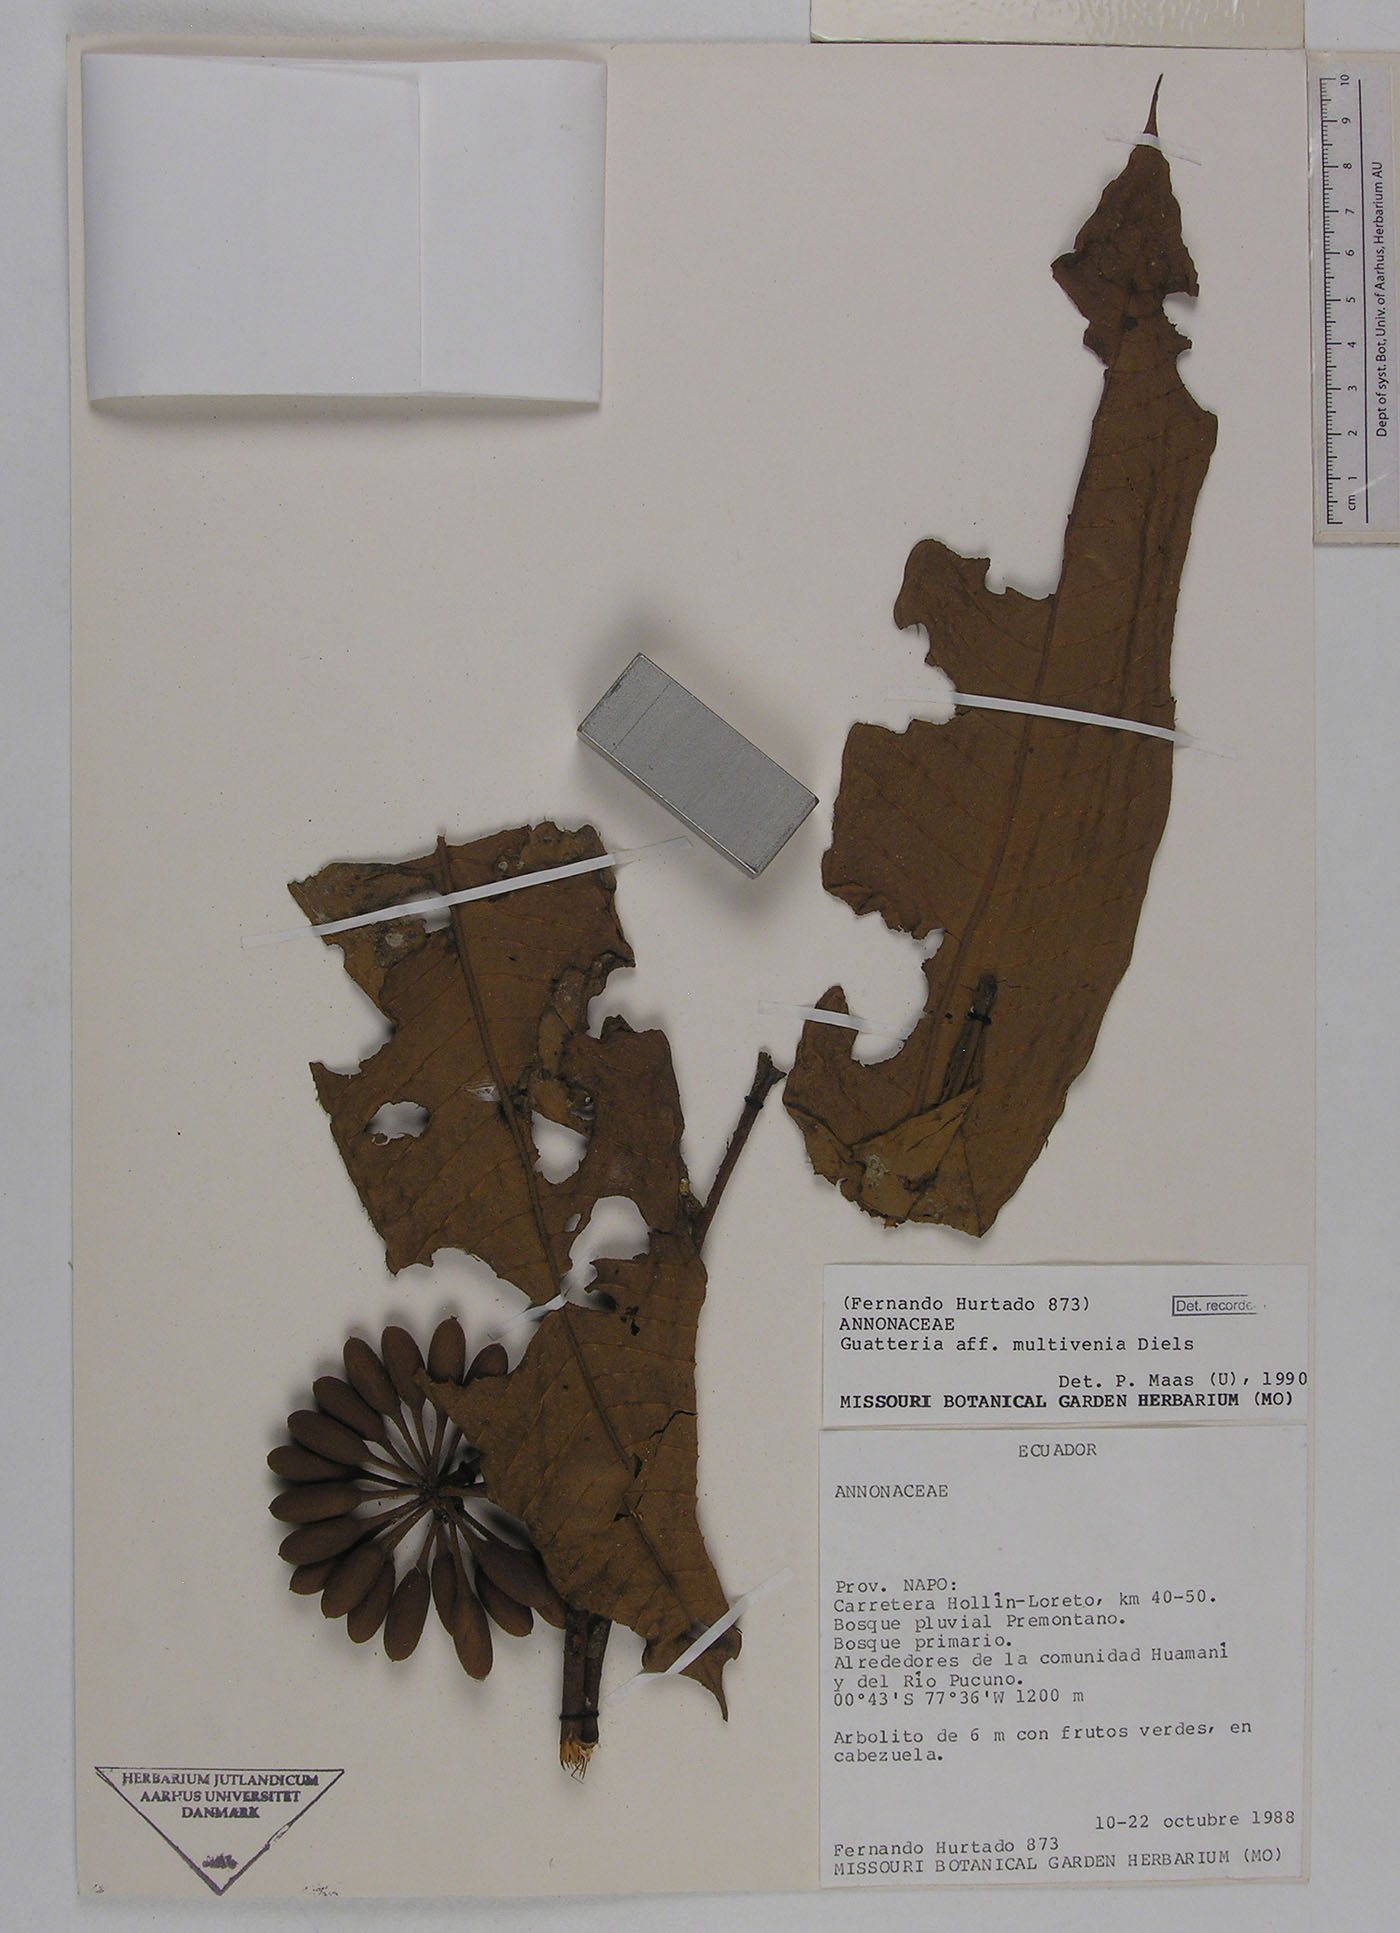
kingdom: Plantae
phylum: Tracheophyta
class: Magnoliopsida
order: Magnoliales
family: Annonaceae
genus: Guatteria
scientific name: Guatteria decurrens
